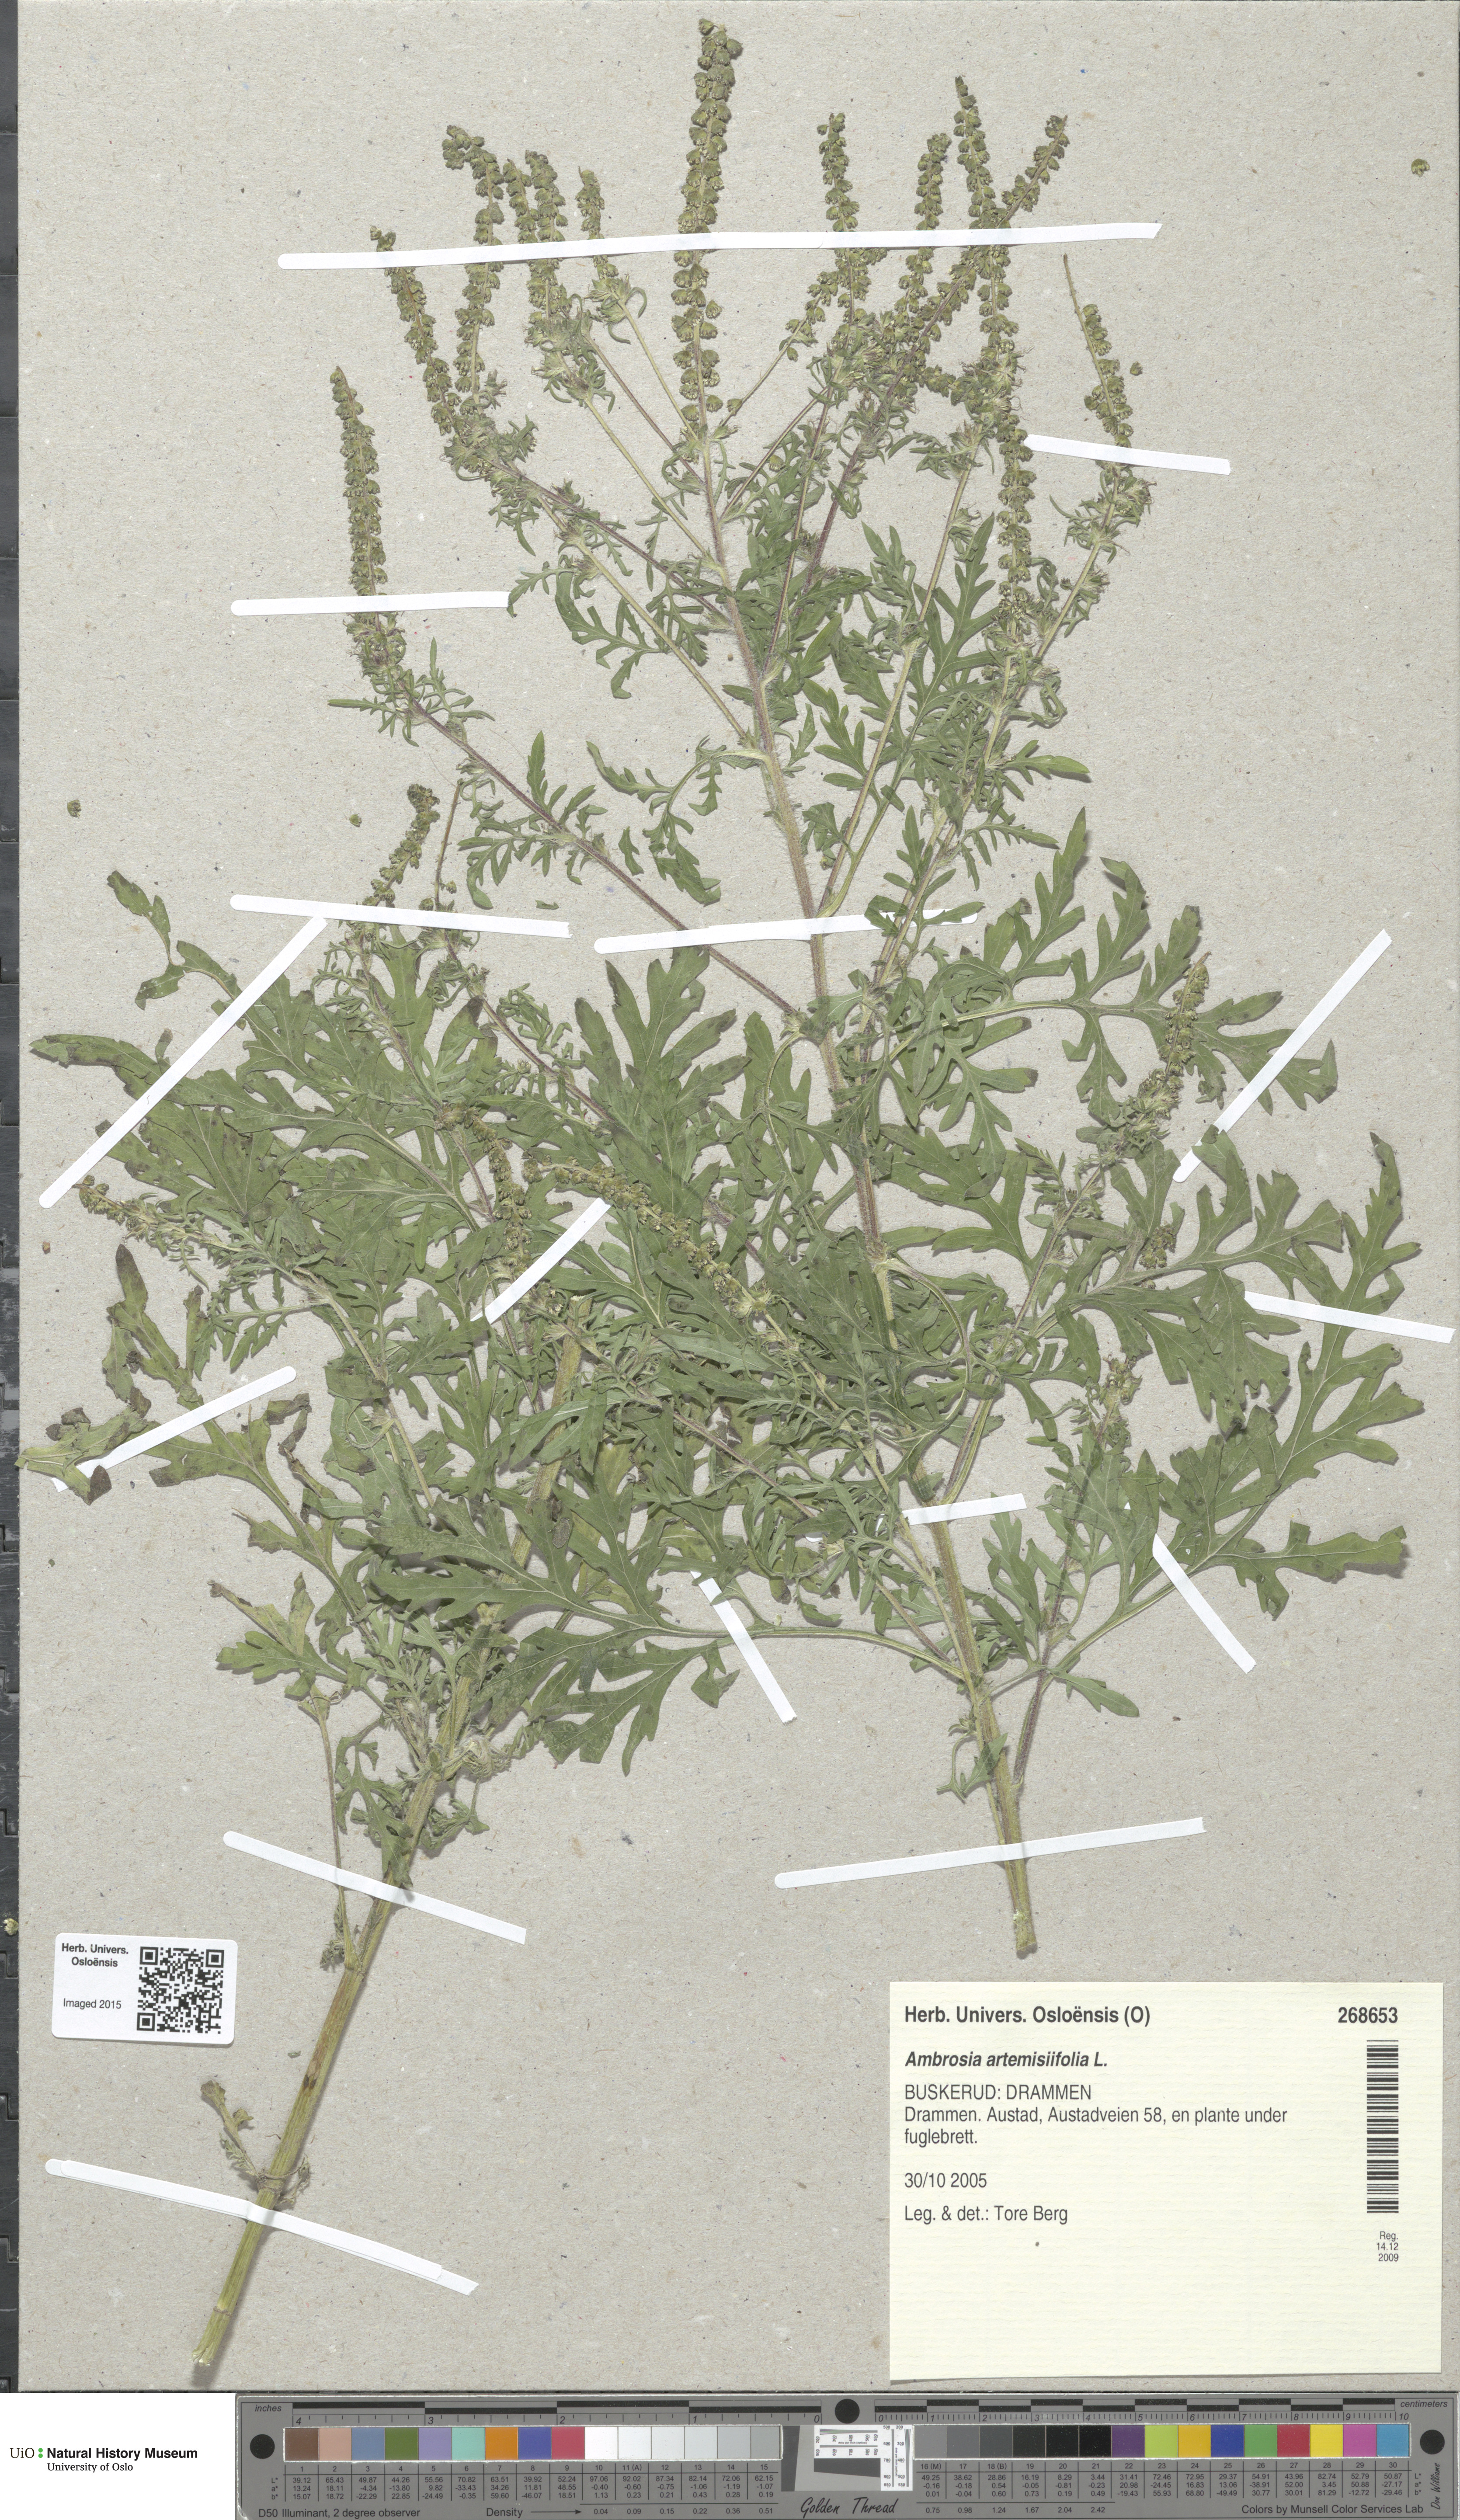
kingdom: Plantae
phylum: Tracheophyta
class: Magnoliopsida
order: Asterales
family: Asteraceae
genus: Ambrosia
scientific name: Ambrosia artemisiifolia
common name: Annual ragweed
